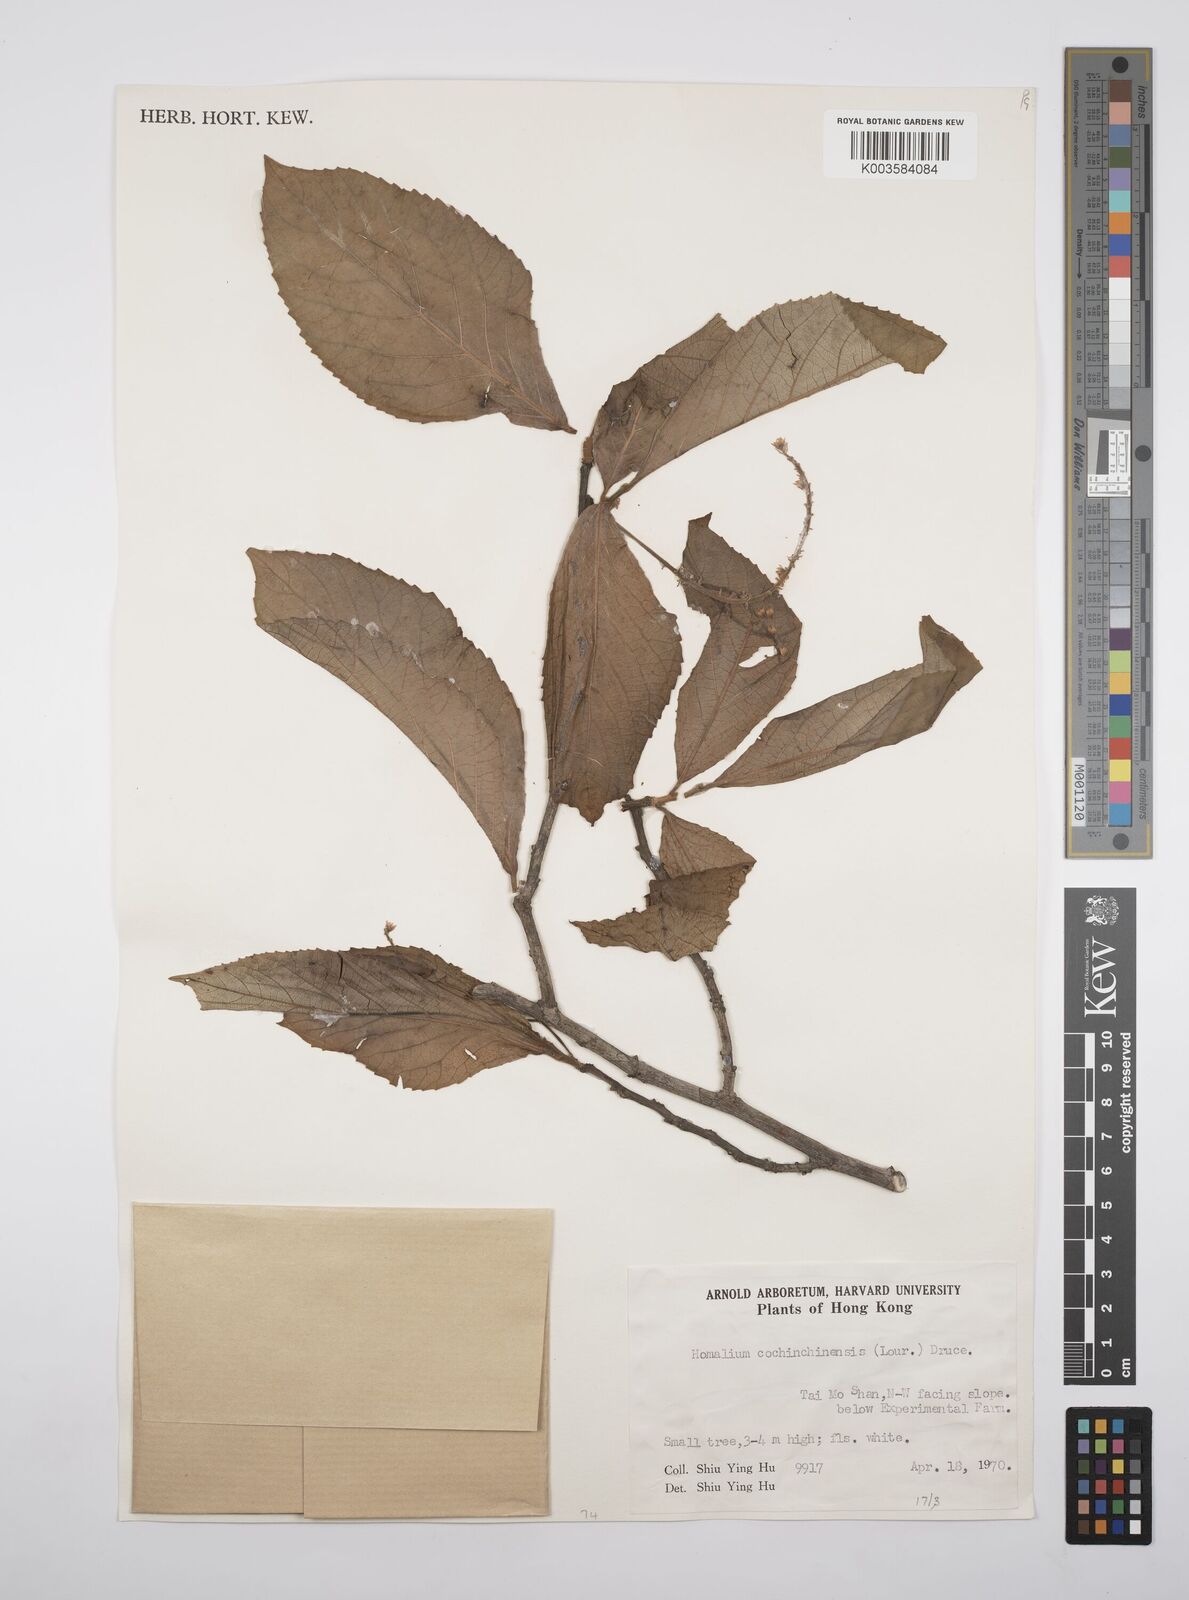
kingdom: Plantae
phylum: Tracheophyta
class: Magnoliopsida
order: Malpighiales
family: Salicaceae
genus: Homalium
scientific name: Homalium cochinchinensis
